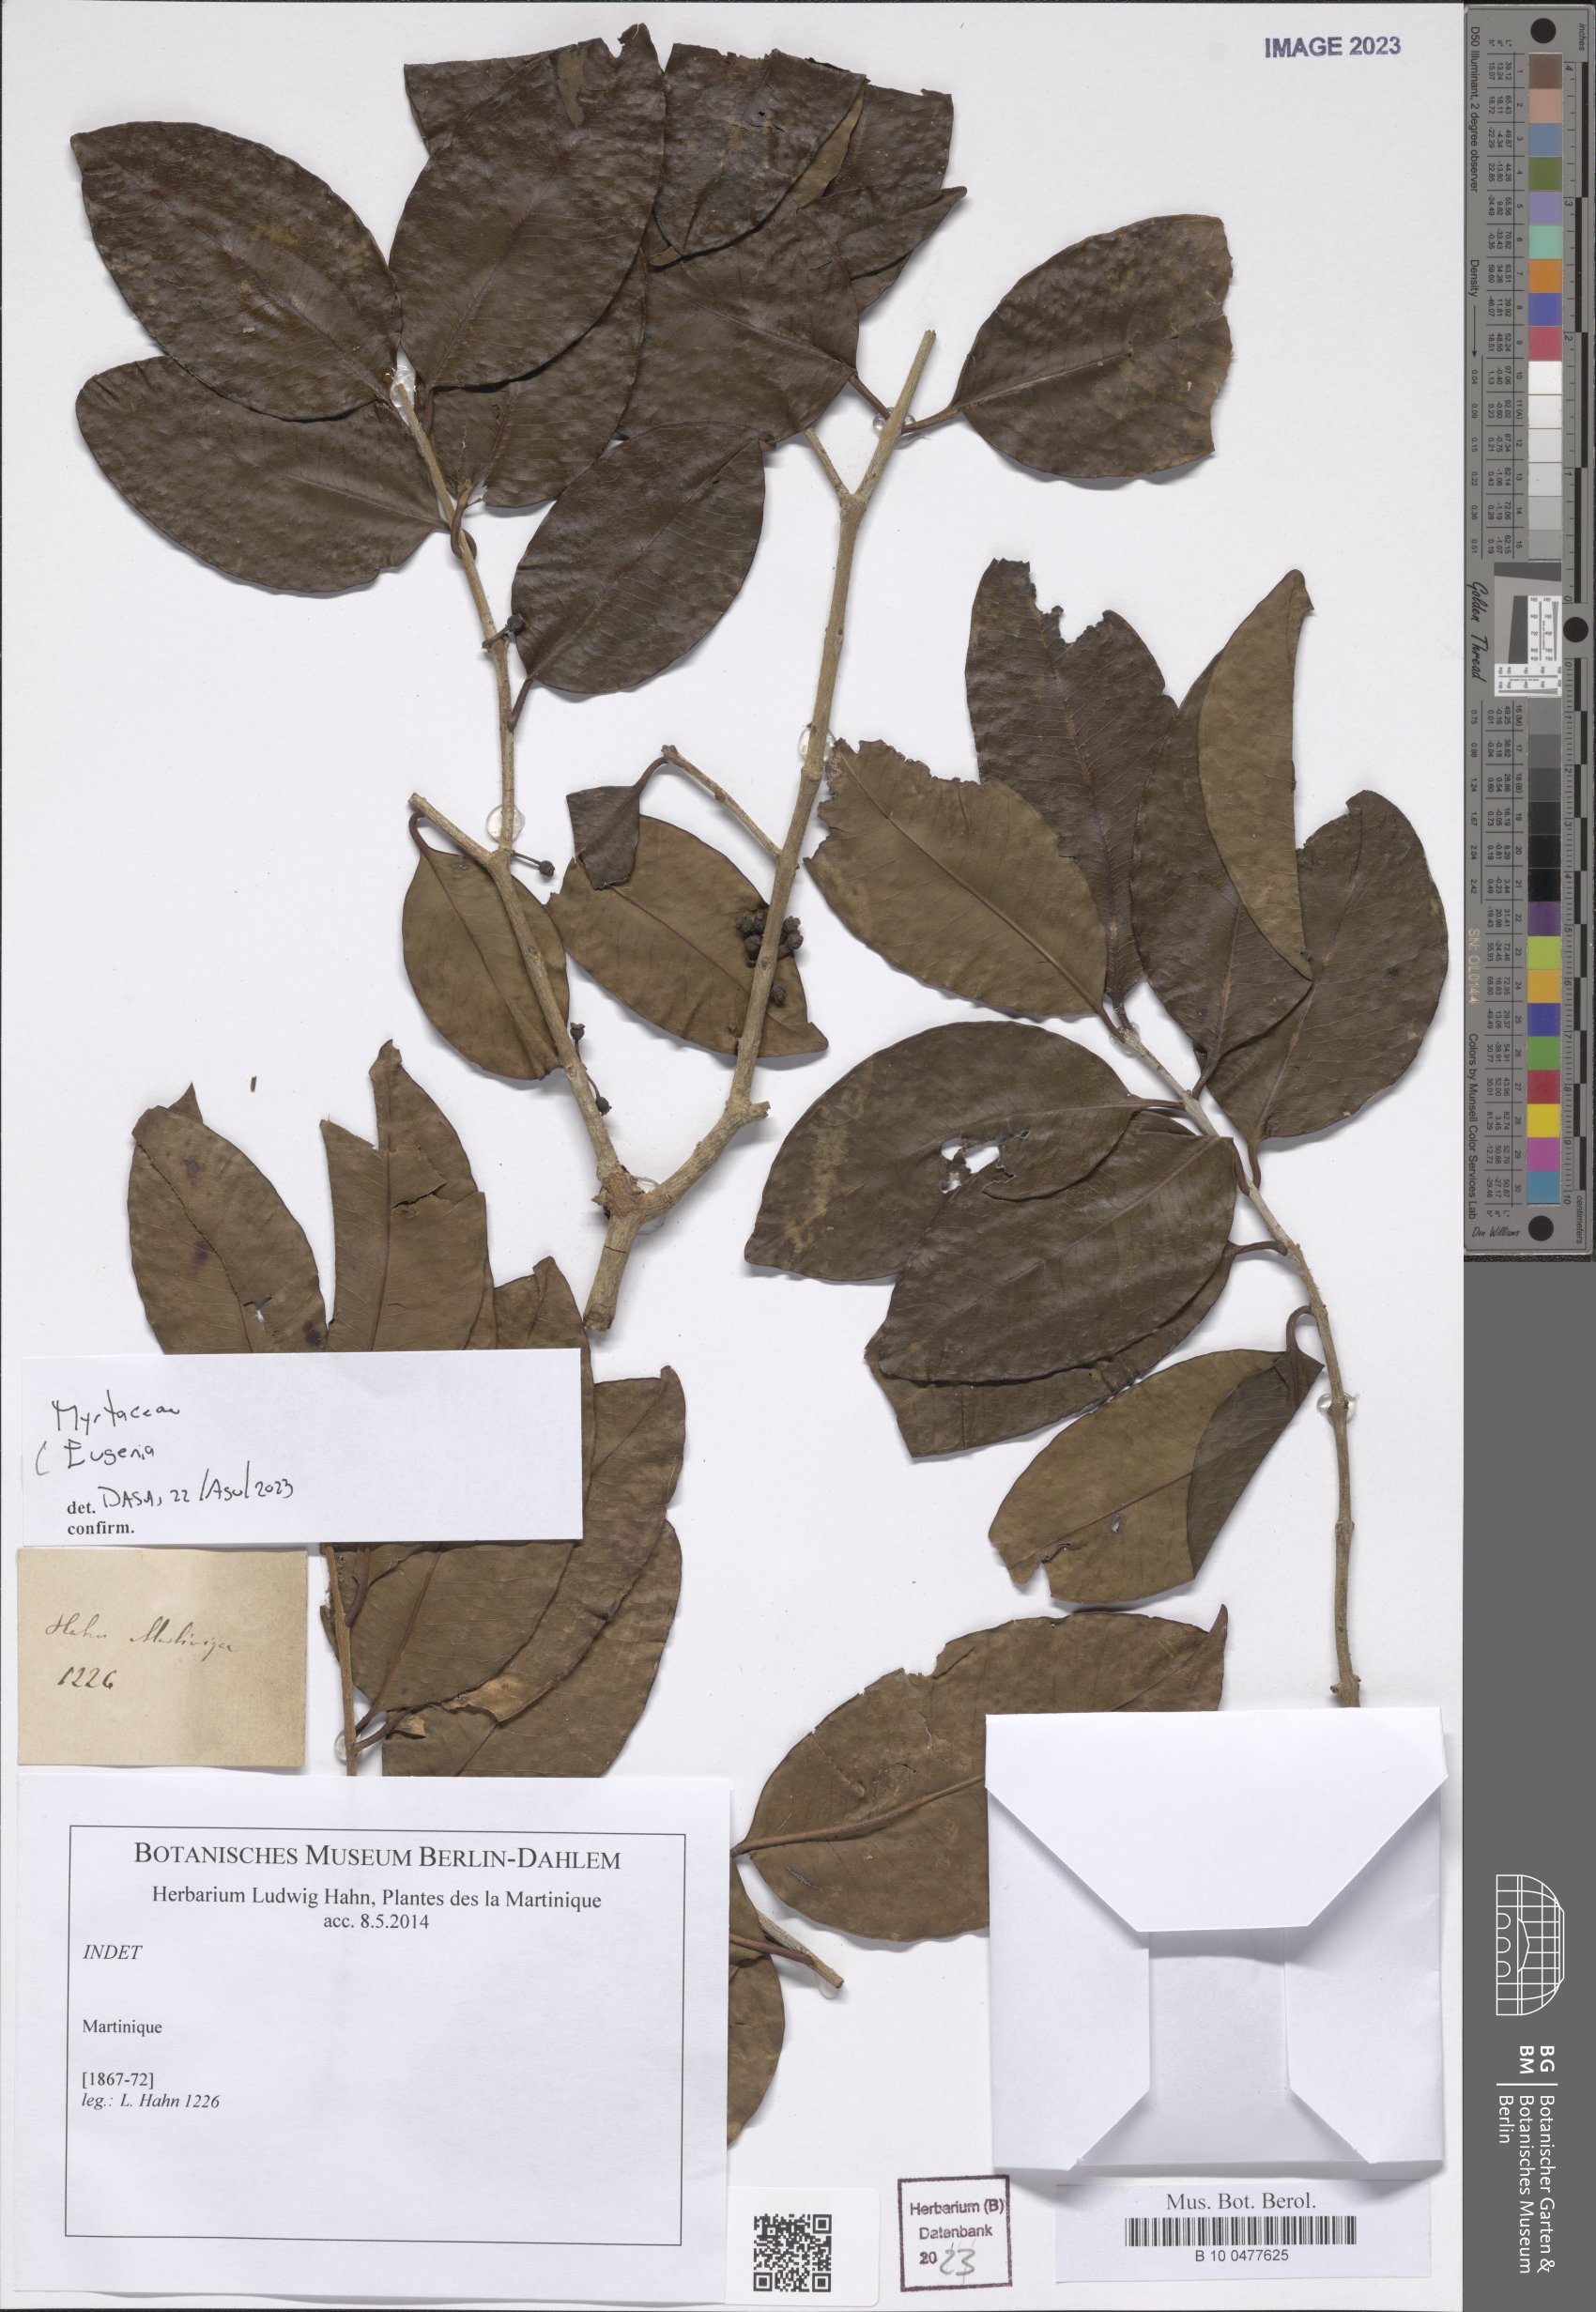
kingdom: Plantae
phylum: Tracheophyta
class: Magnoliopsida
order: Myrtales
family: Myrtaceae
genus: Eugenia
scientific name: Eugenia
